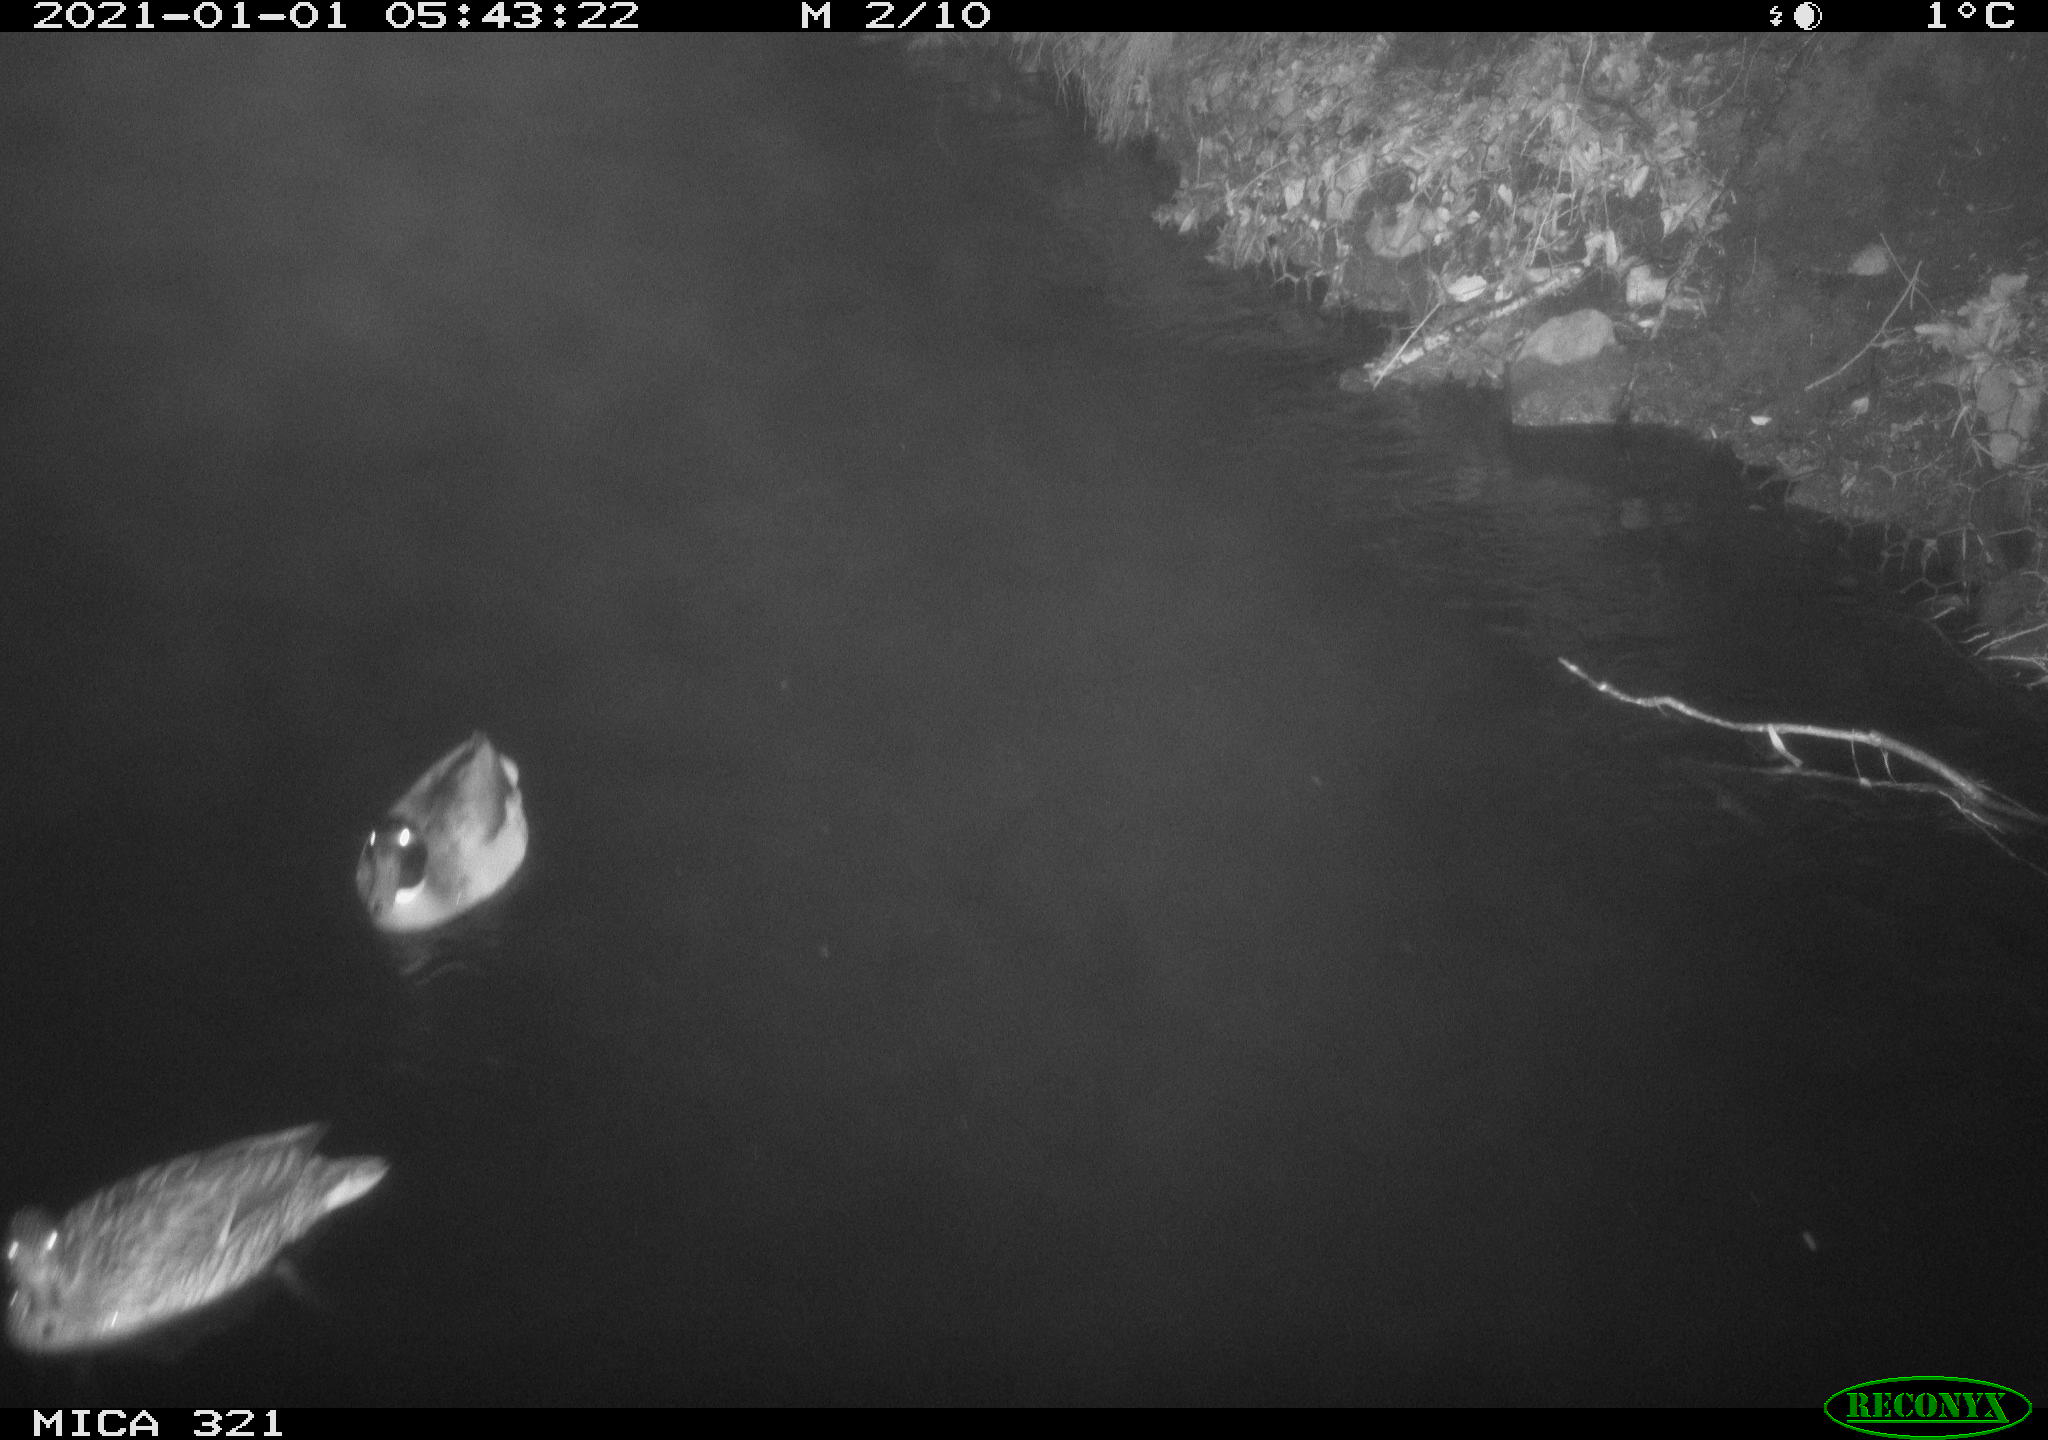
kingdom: Animalia
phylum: Chordata
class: Aves
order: Anseriformes
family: Anatidae
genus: Anas
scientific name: Anas platyrhynchos
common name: Mallard
